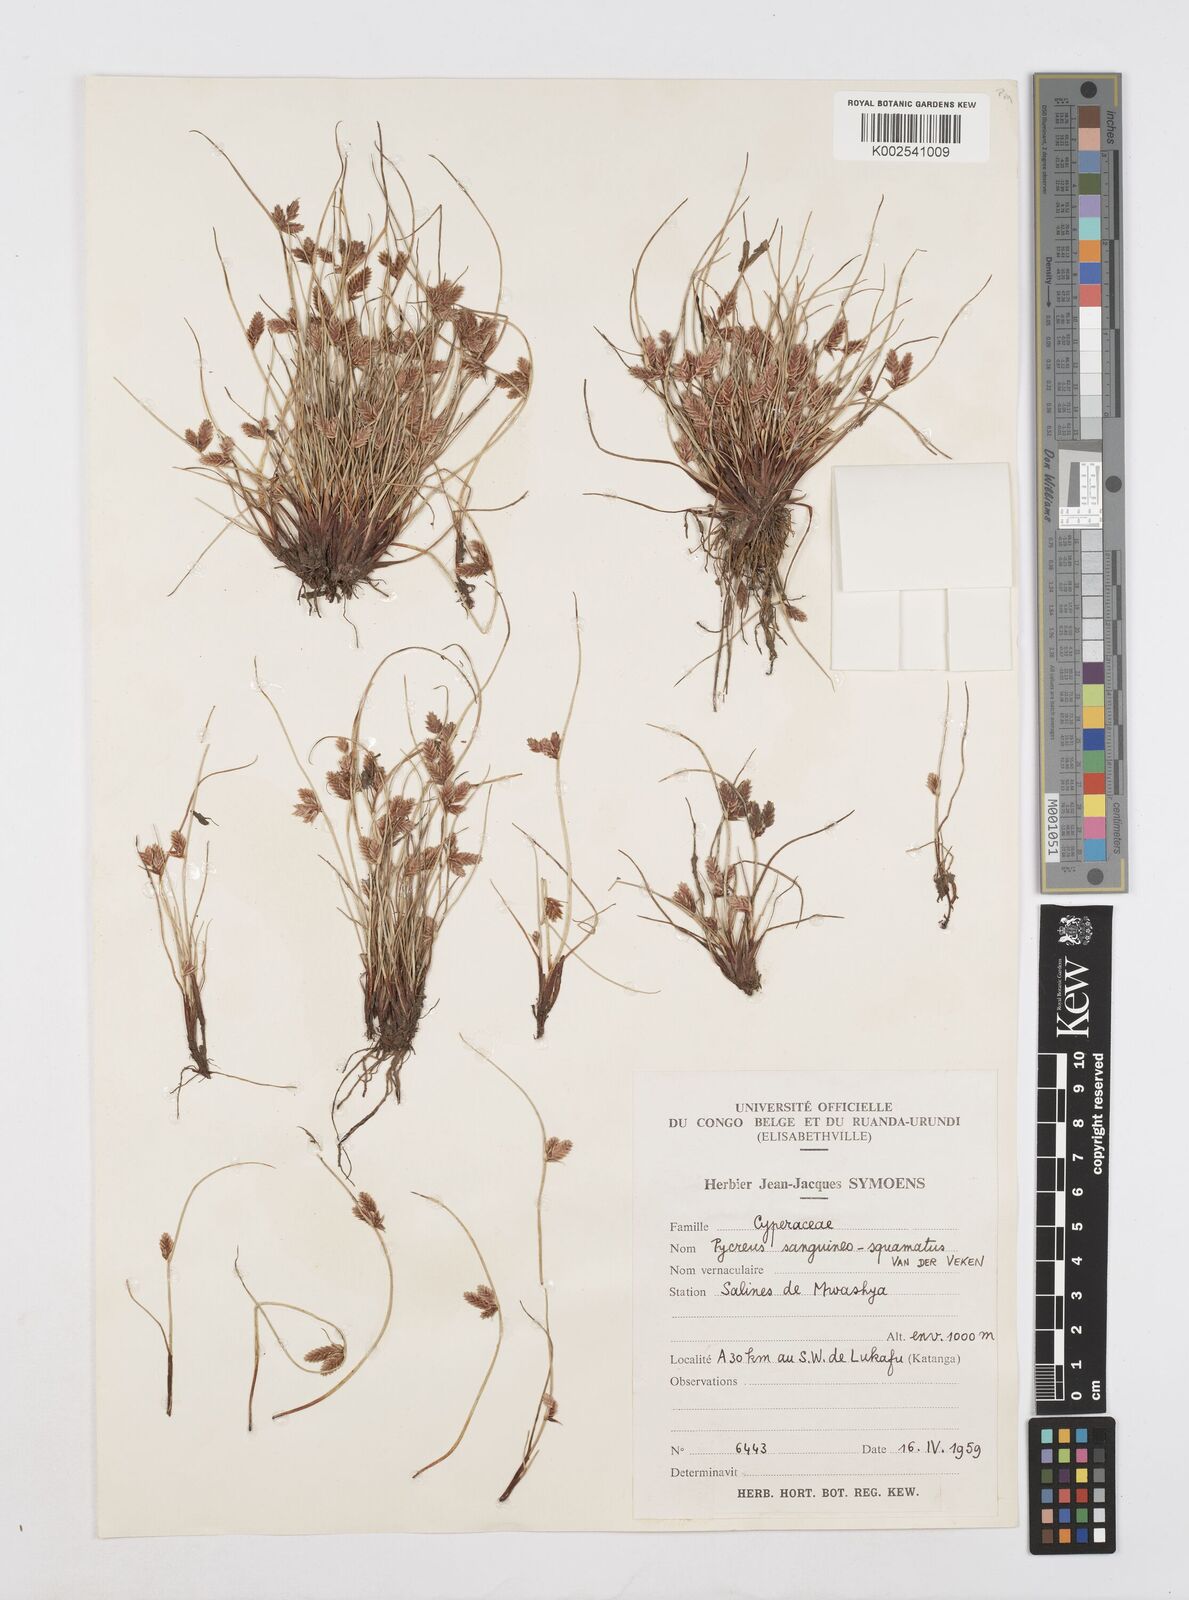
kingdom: Plantae
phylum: Tracheophyta
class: Liliopsida
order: Poales
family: Cyperaceae
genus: Cyperus
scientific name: Cyperus
